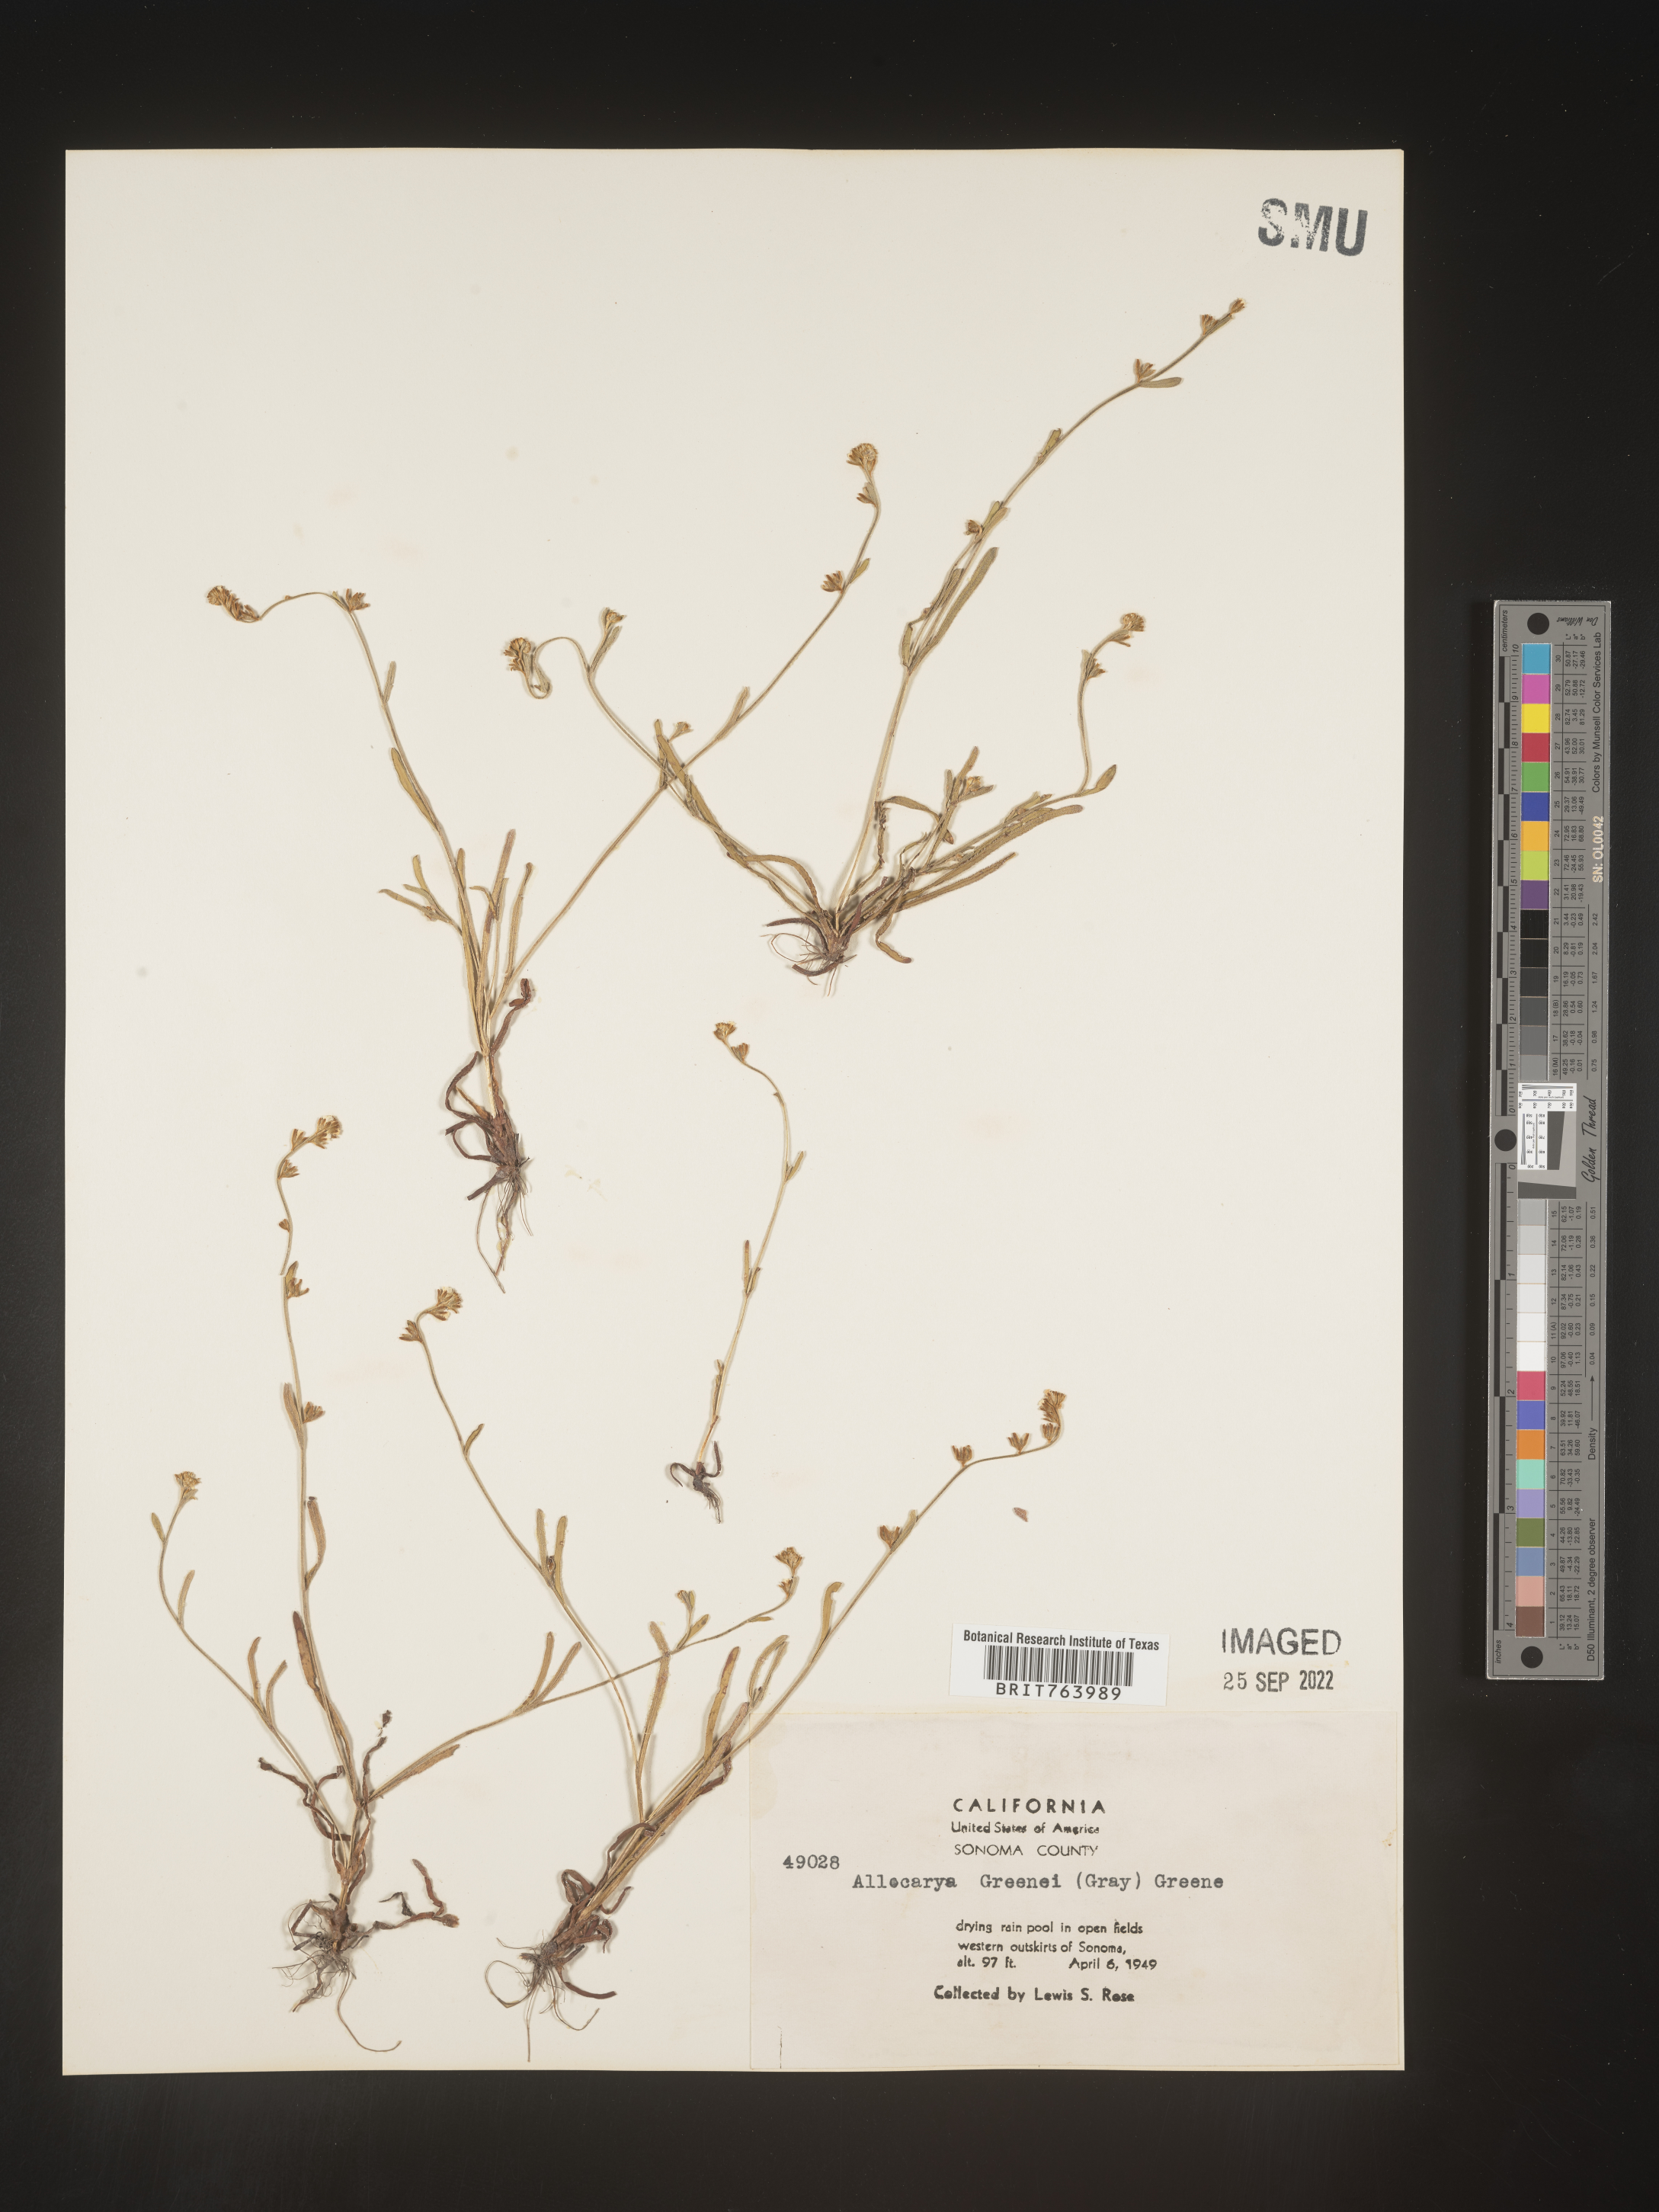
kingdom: Plantae
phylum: Tracheophyta
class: Magnoliopsida
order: Boraginales
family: Boraginaceae
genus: Plagiobothrys
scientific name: Plagiobothrys
